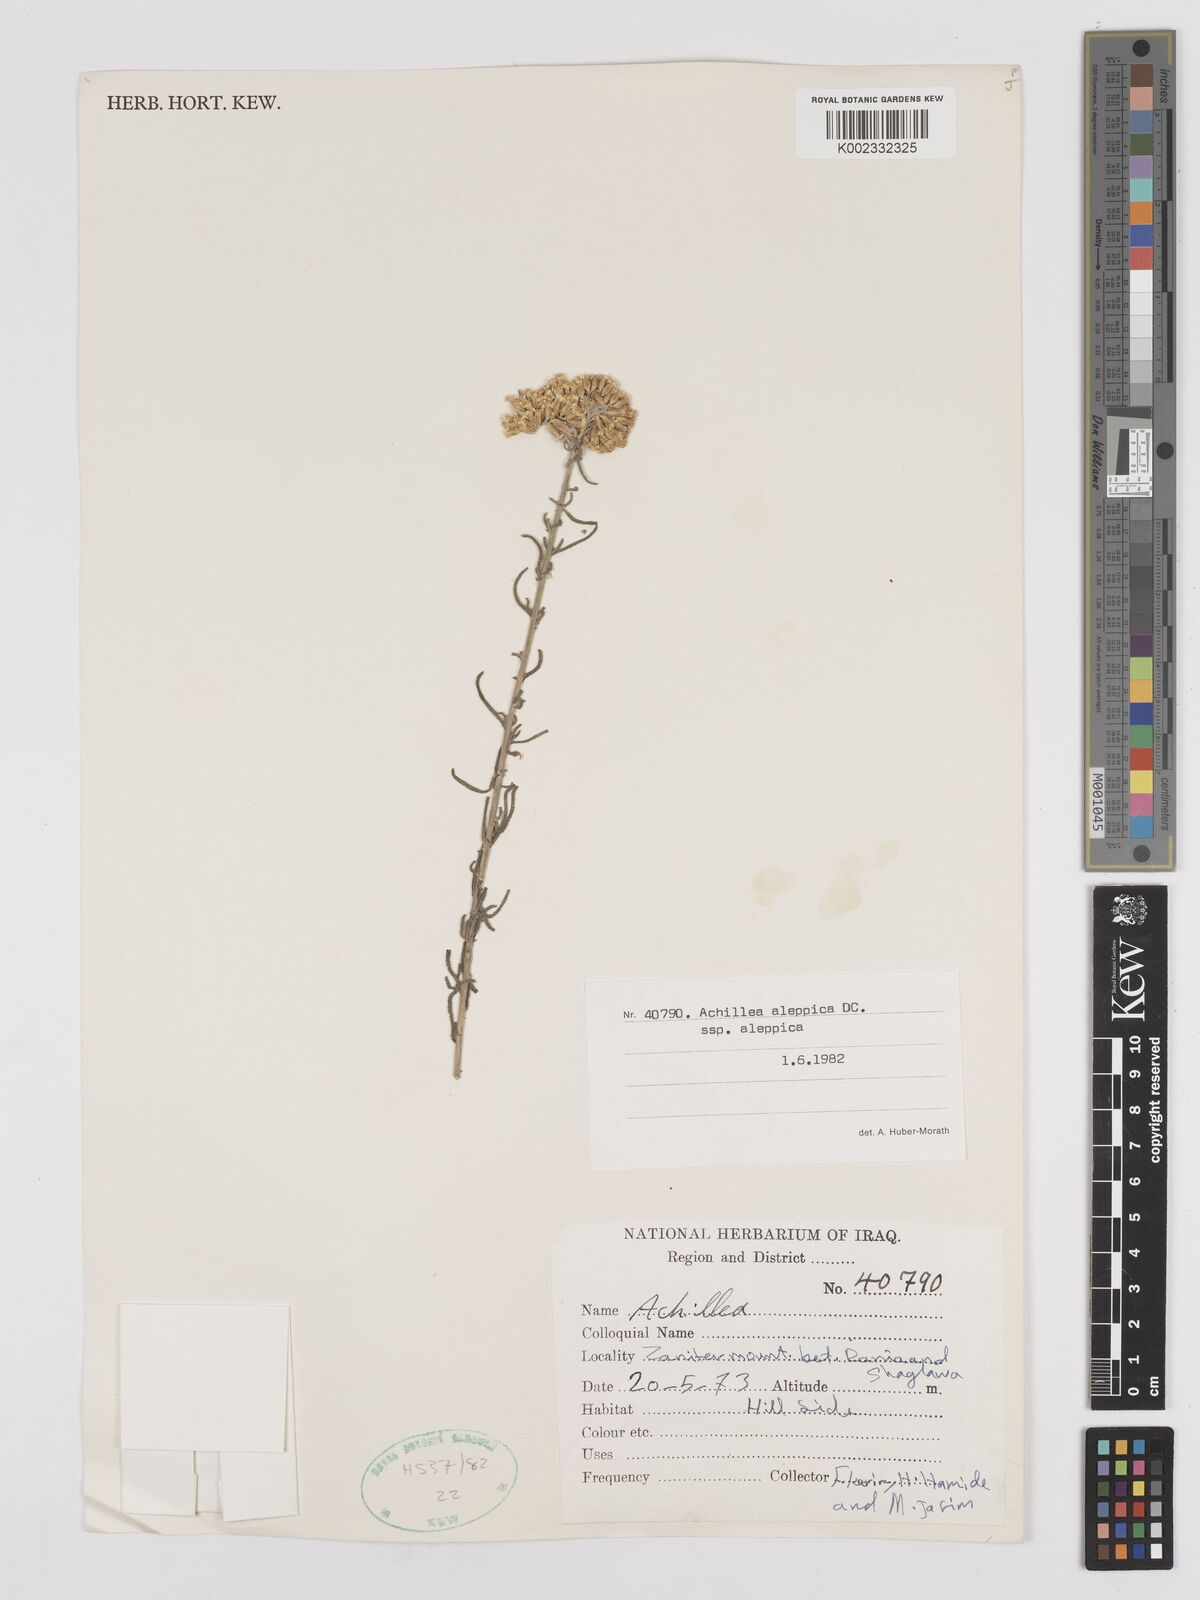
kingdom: Plantae
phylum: Tracheophyta
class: Magnoliopsida
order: Asterales
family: Asteraceae
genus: Achillea
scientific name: Achillea aleppica
